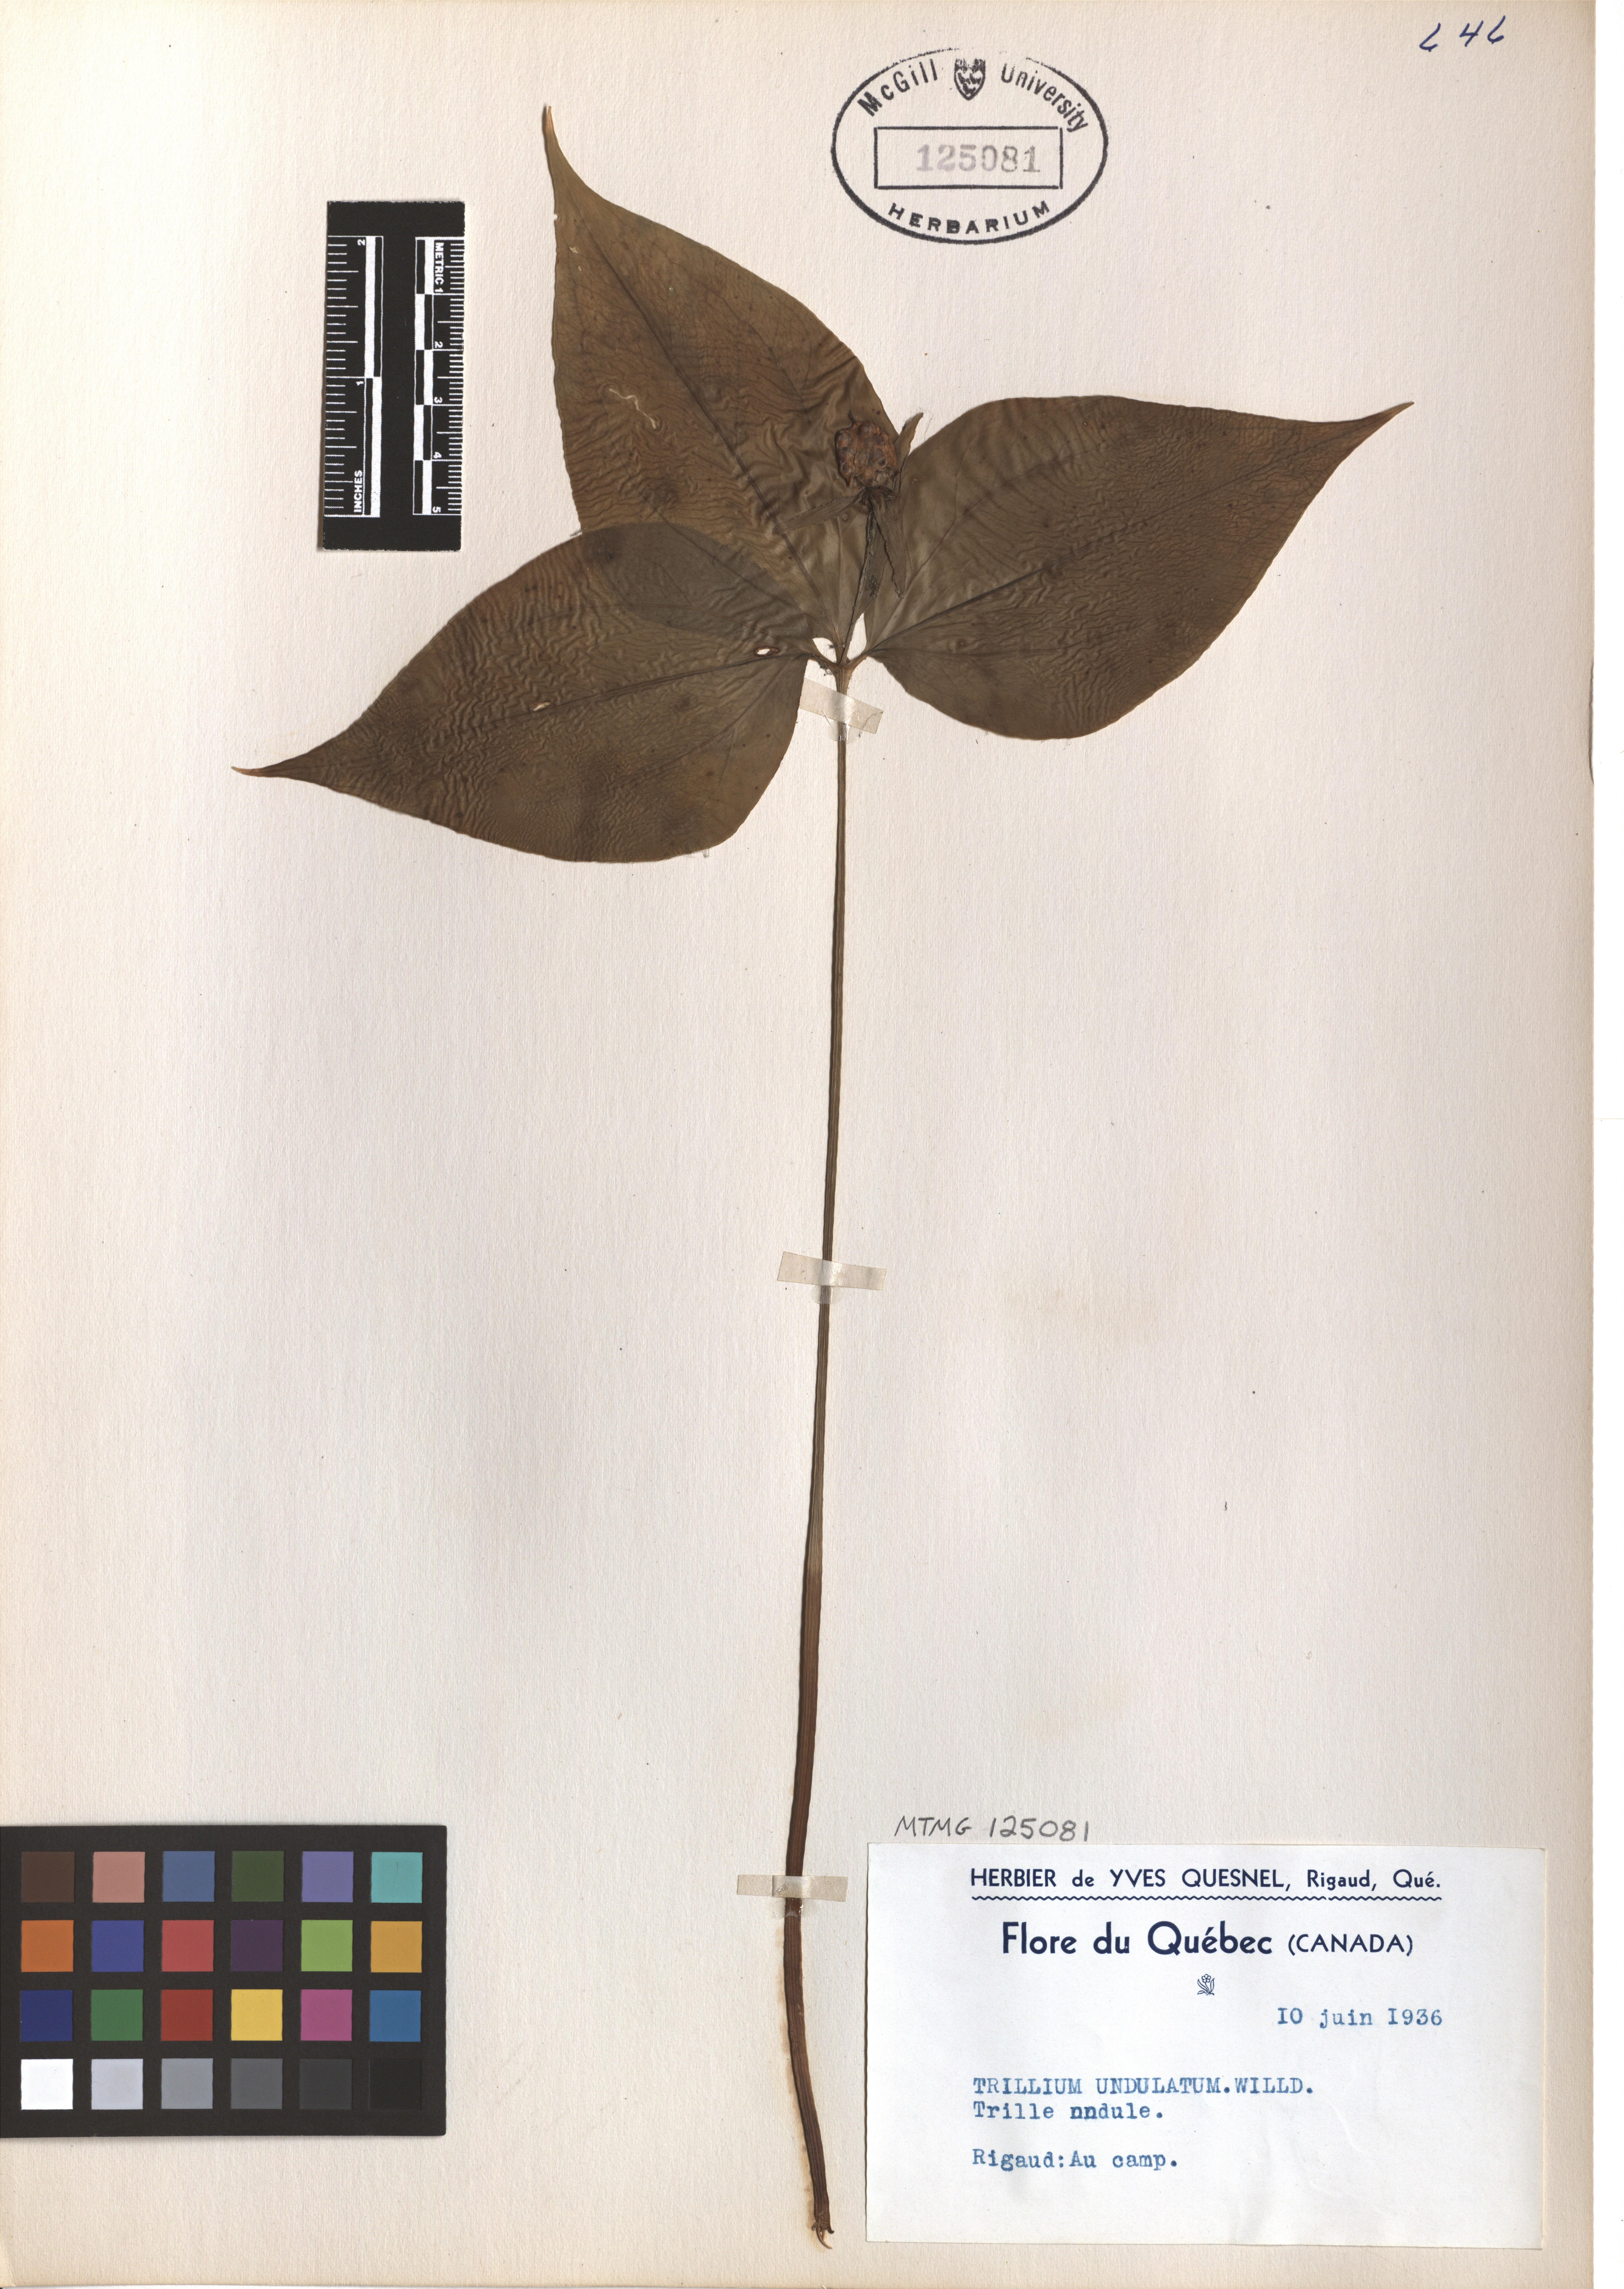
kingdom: Plantae
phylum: Tracheophyta
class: Liliopsida
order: Liliales
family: Melanthiaceae
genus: Trillium
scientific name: Trillium undulatum
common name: Paint trillium
